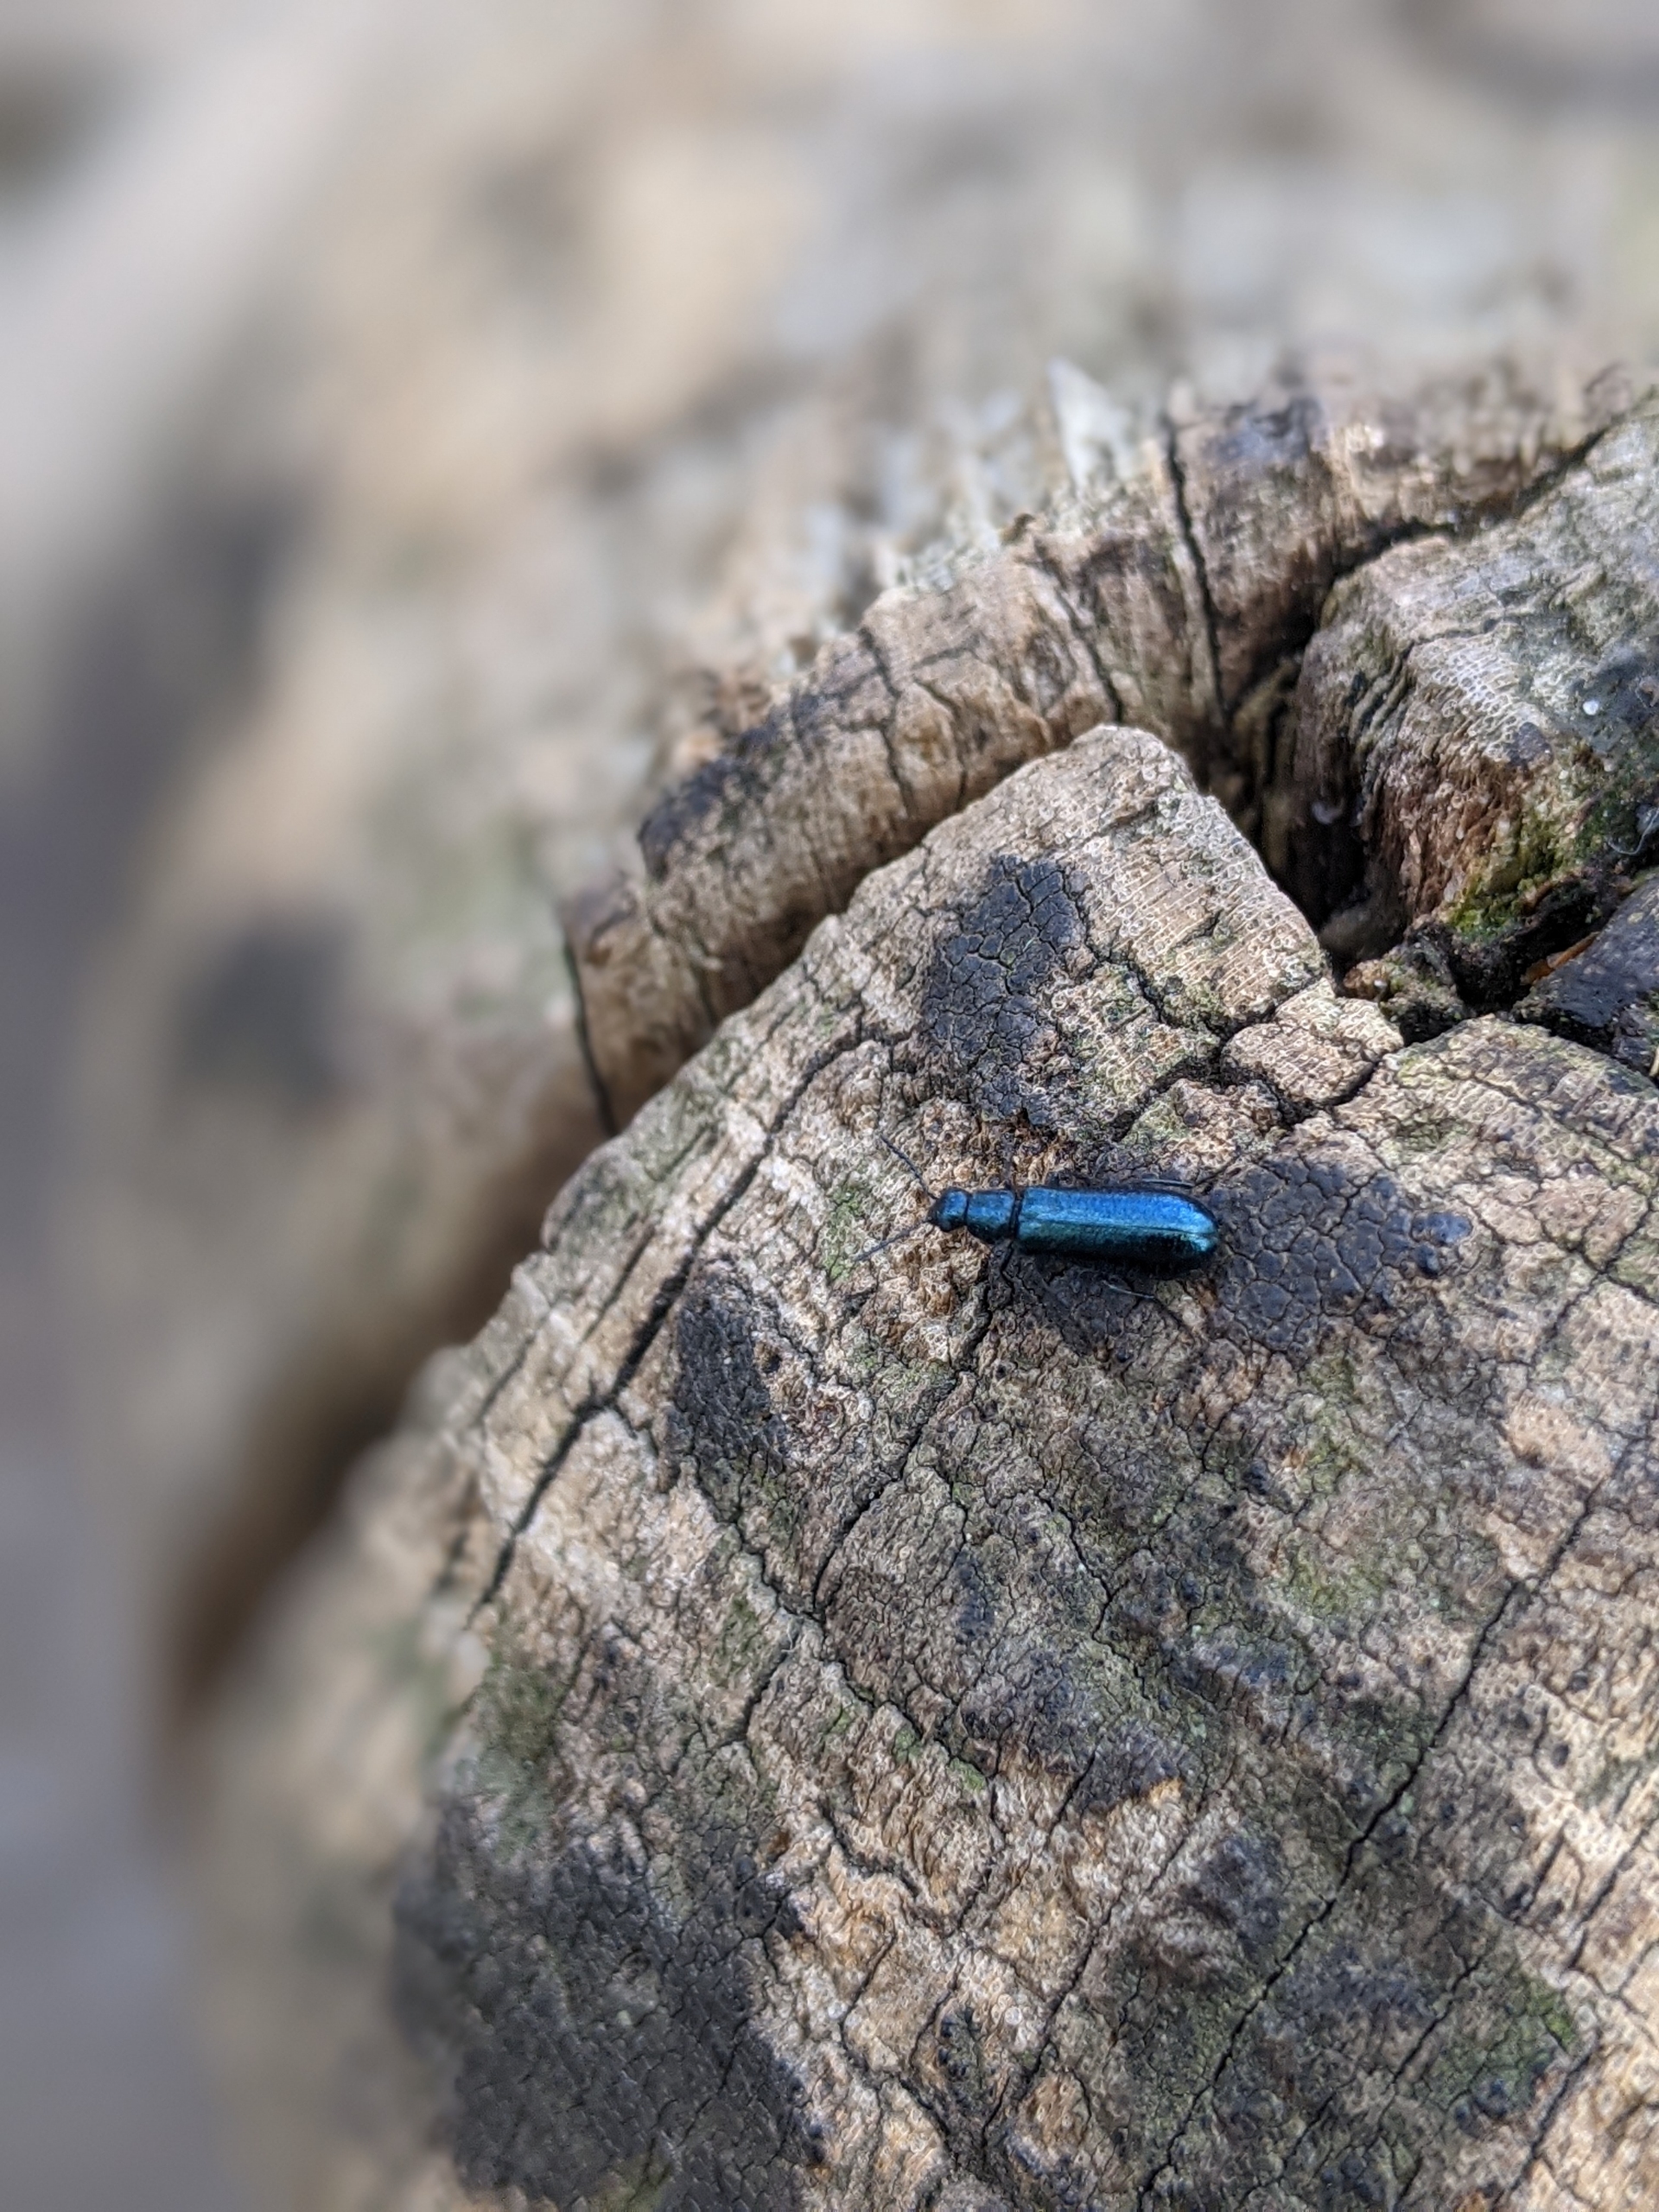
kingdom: Animalia
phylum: Arthropoda
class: Insecta
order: Coleoptera
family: Melyridae
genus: Dasytes
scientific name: Dasytes caeruleus
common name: Blå malakitbille
